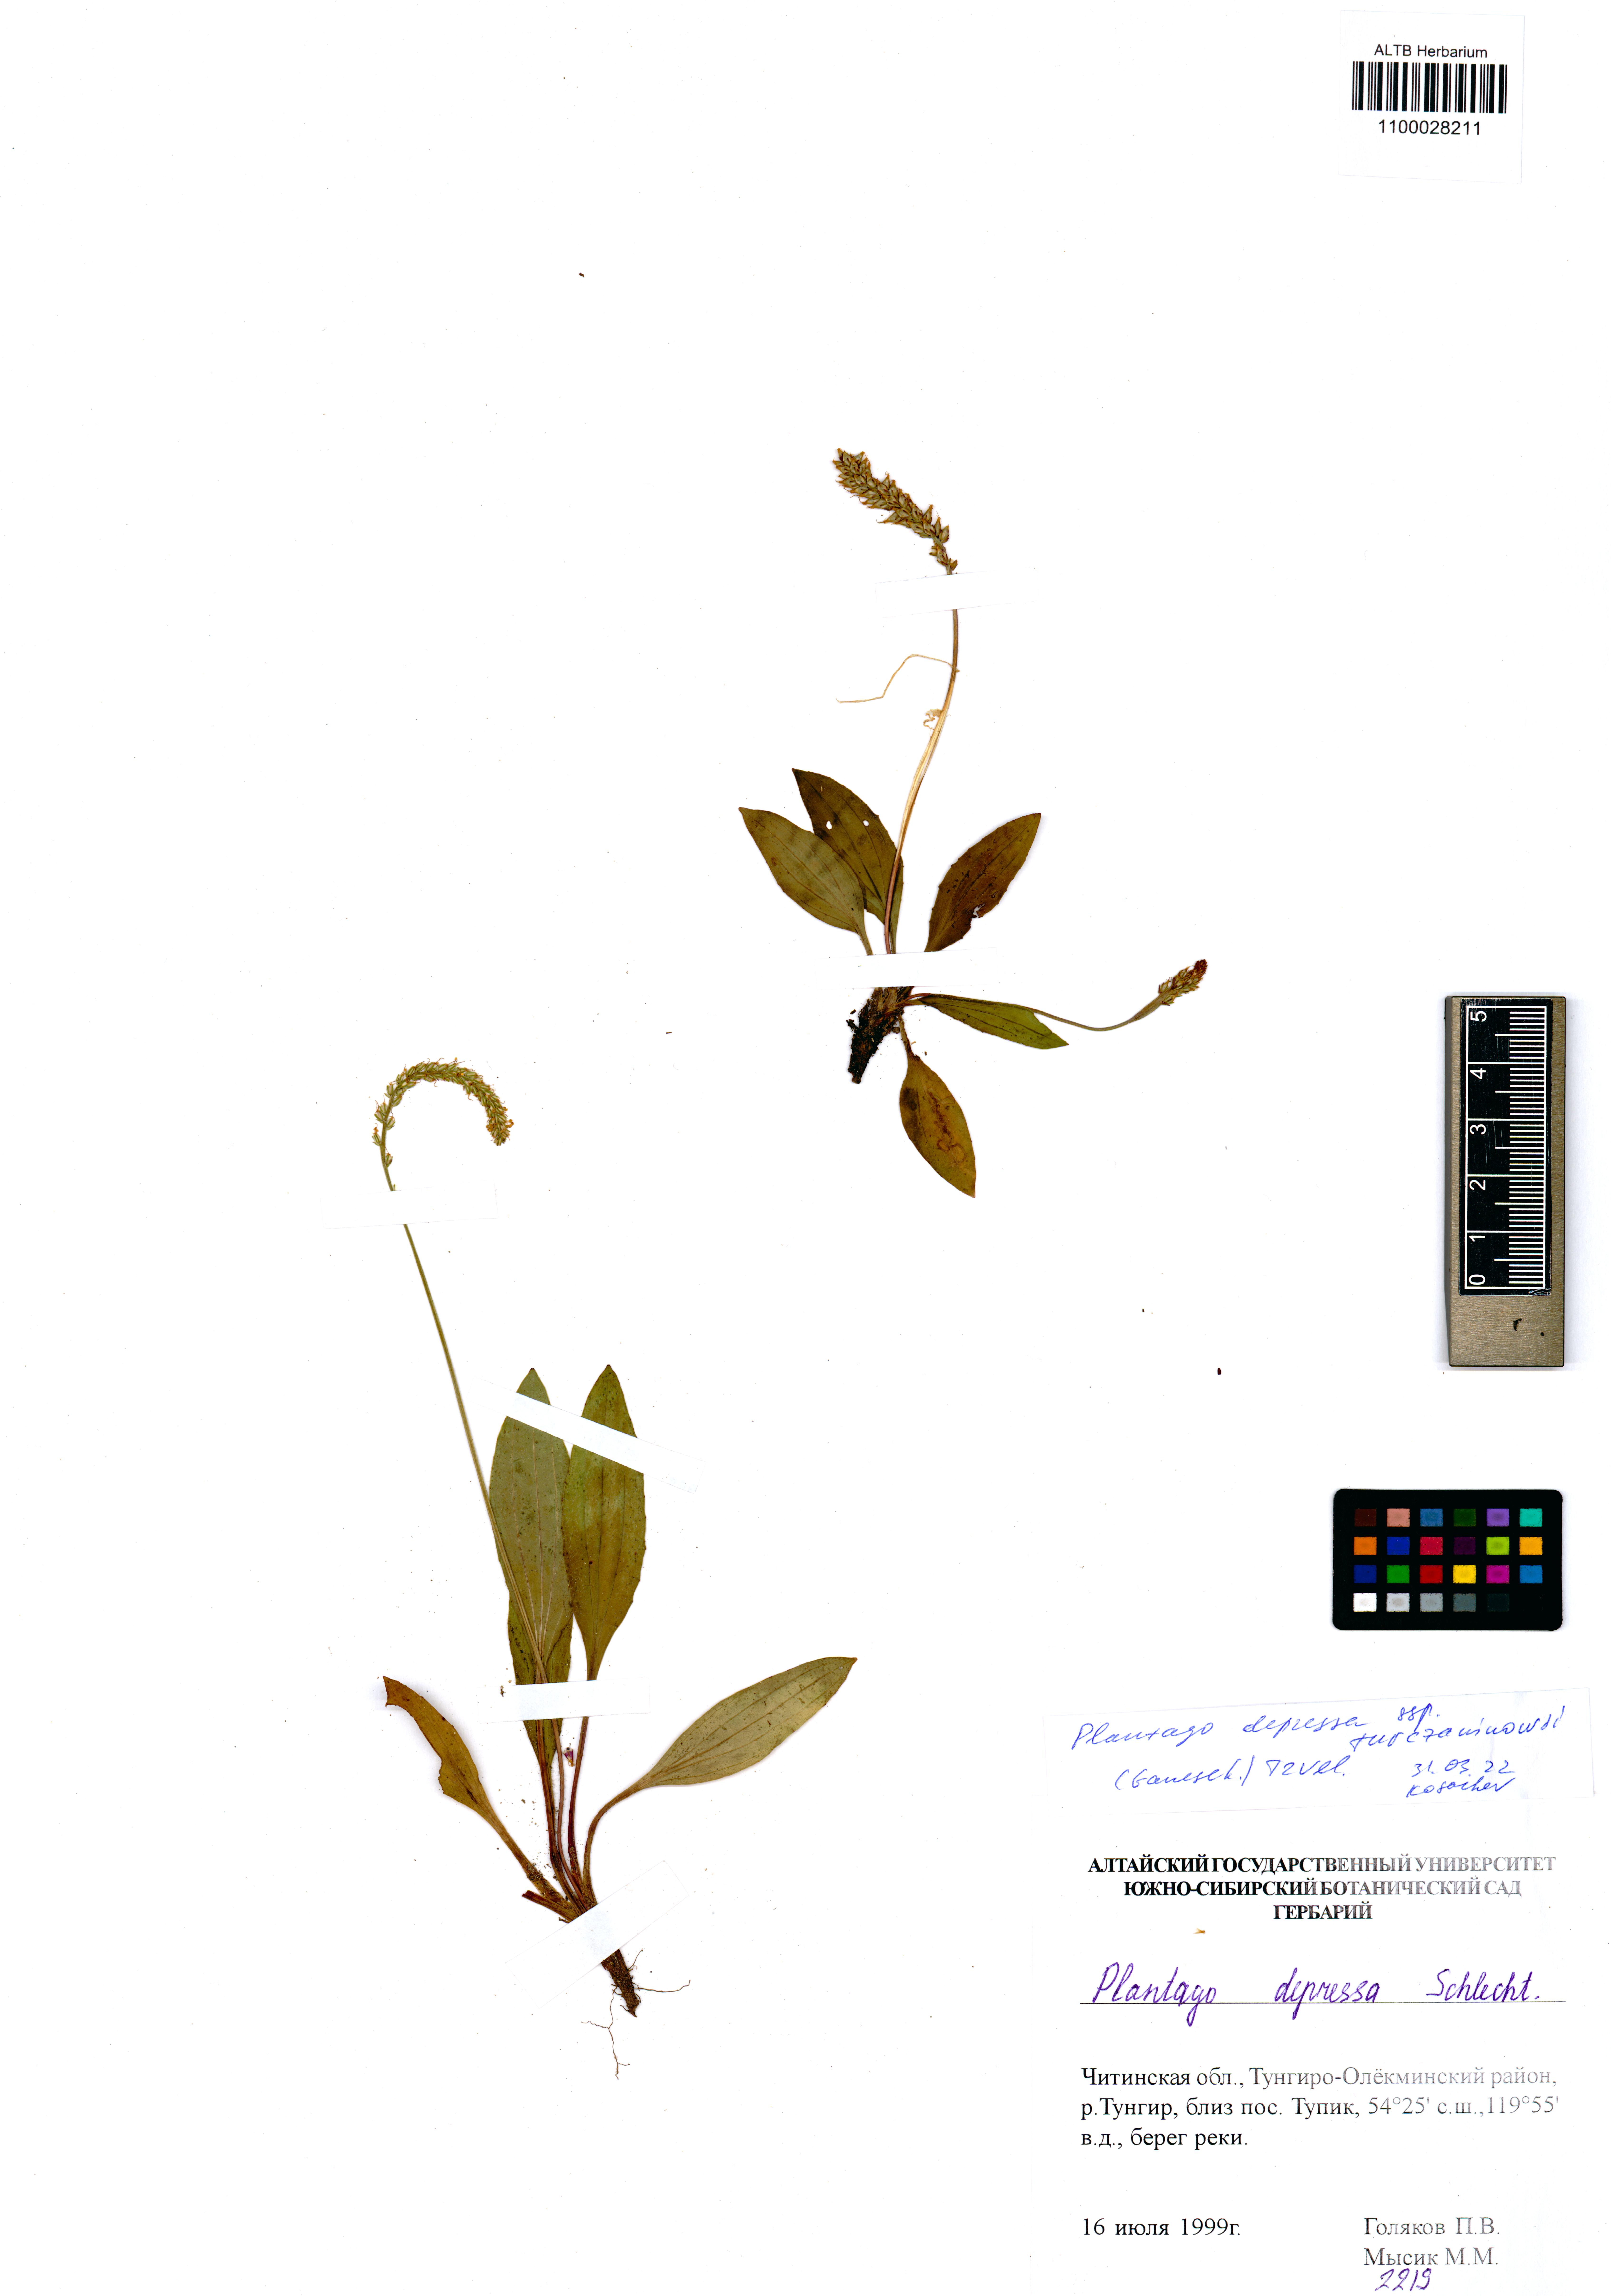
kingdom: Plantae
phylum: Tracheophyta
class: Magnoliopsida
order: Lamiales
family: Plantaginaceae
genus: Plantago
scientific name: Plantago depressa
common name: Depressed plantain
